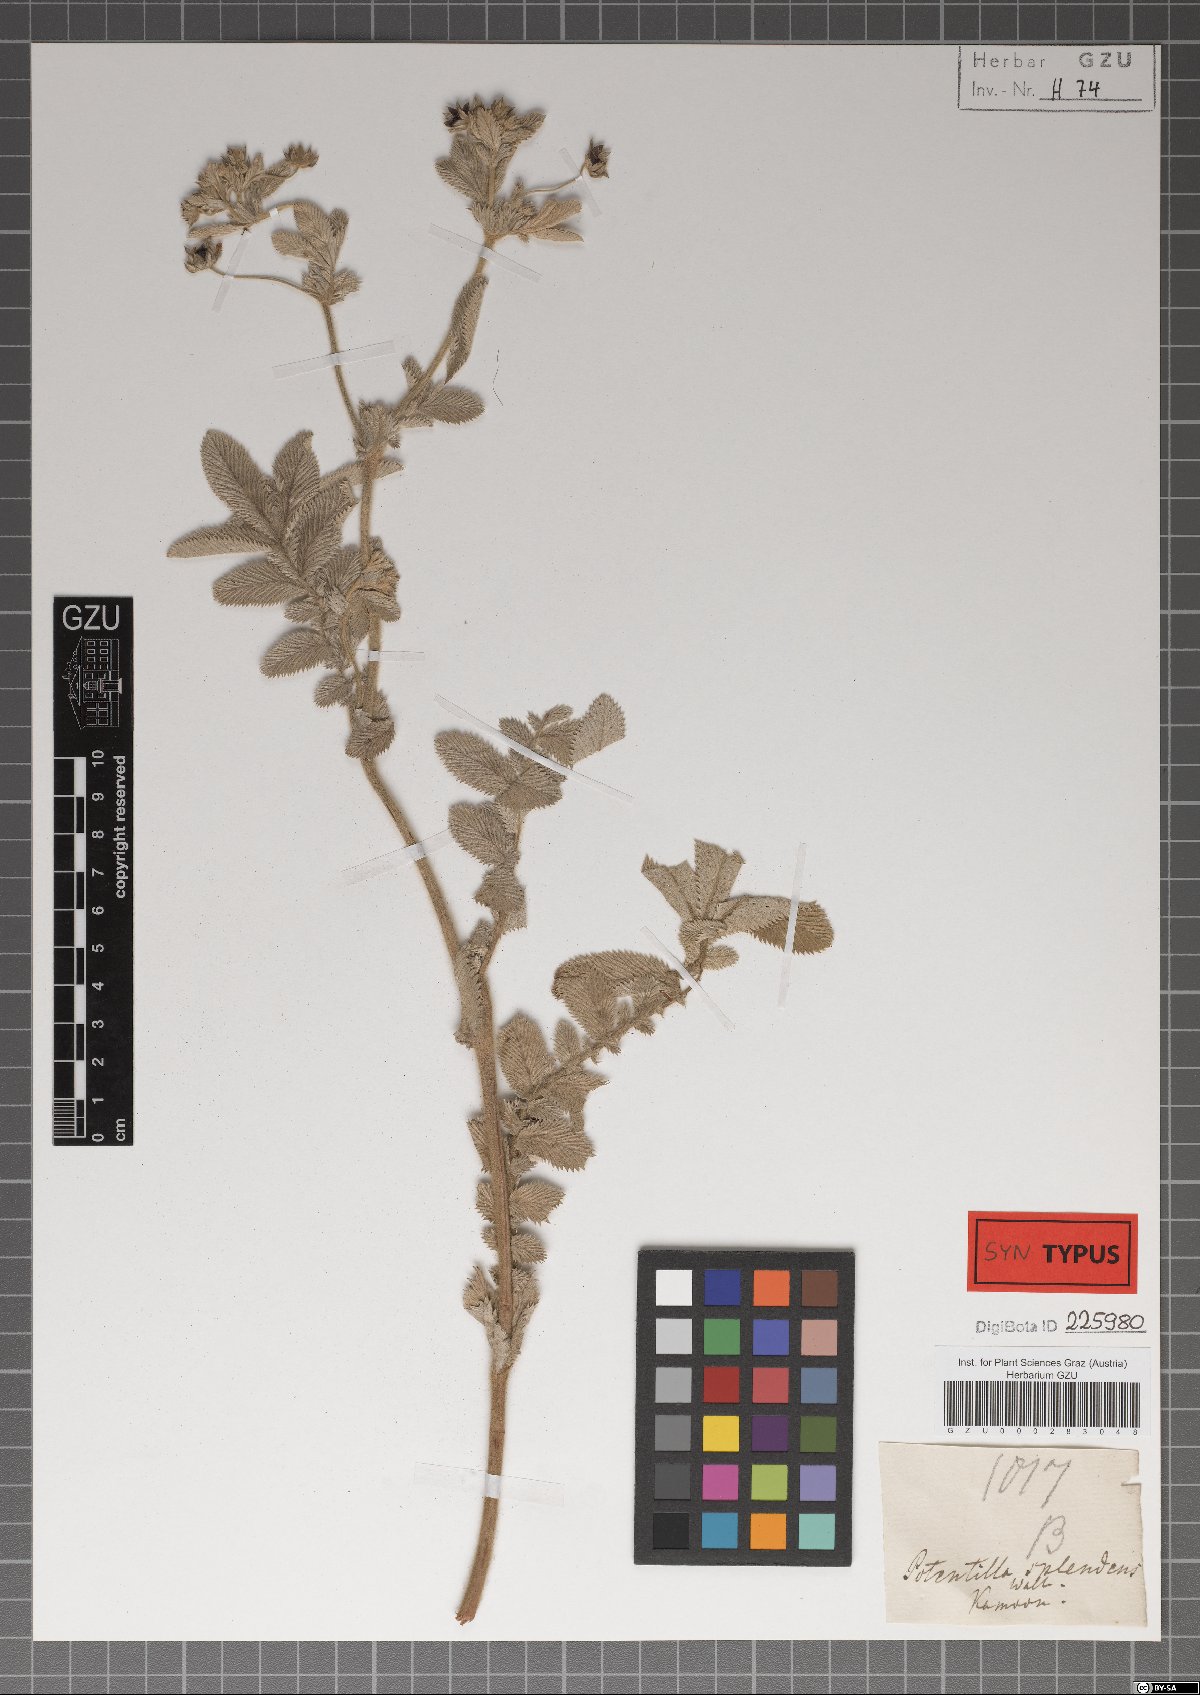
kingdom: Plantae
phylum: Tracheophyta
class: Magnoliopsida
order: Rosales
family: Rosaceae
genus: Argentina
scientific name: Argentina lineata
